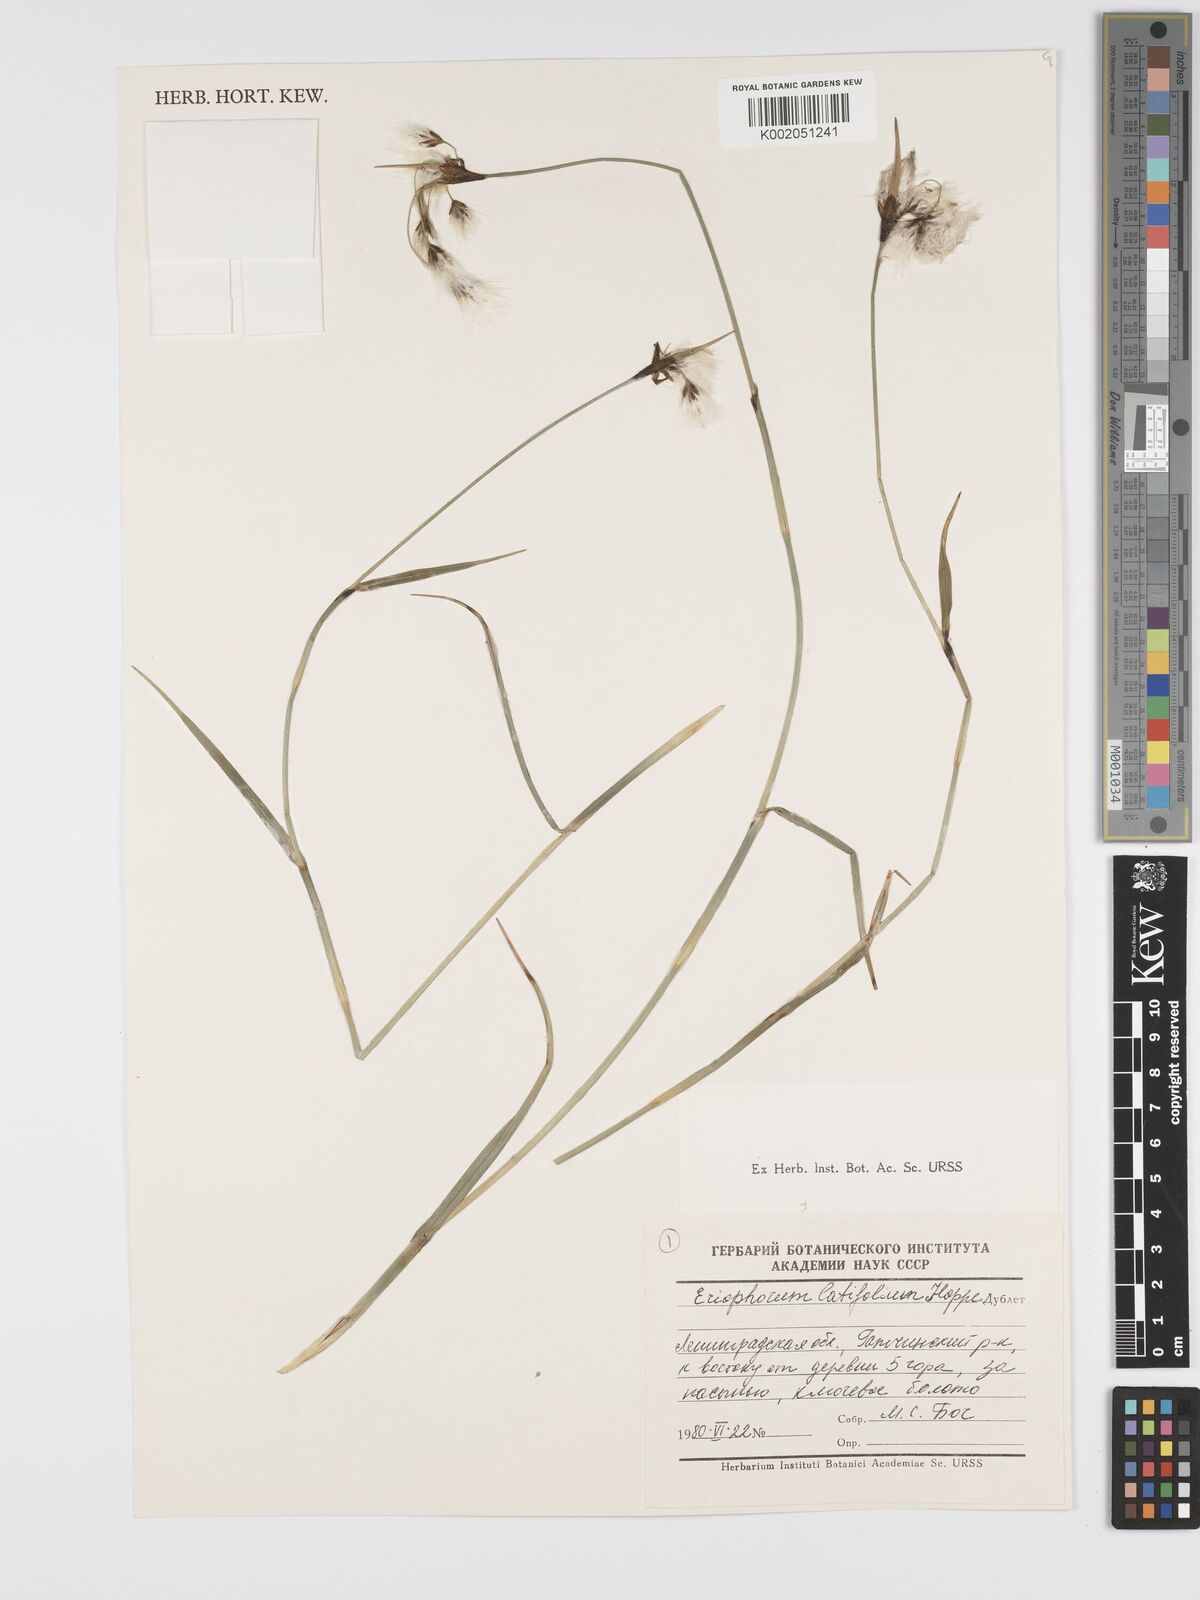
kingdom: Plantae
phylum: Tracheophyta
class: Liliopsida
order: Poales
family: Cyperaceae
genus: Eriophorum
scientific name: Eriophorum latifolium
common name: Broad-leaved cottongrass
